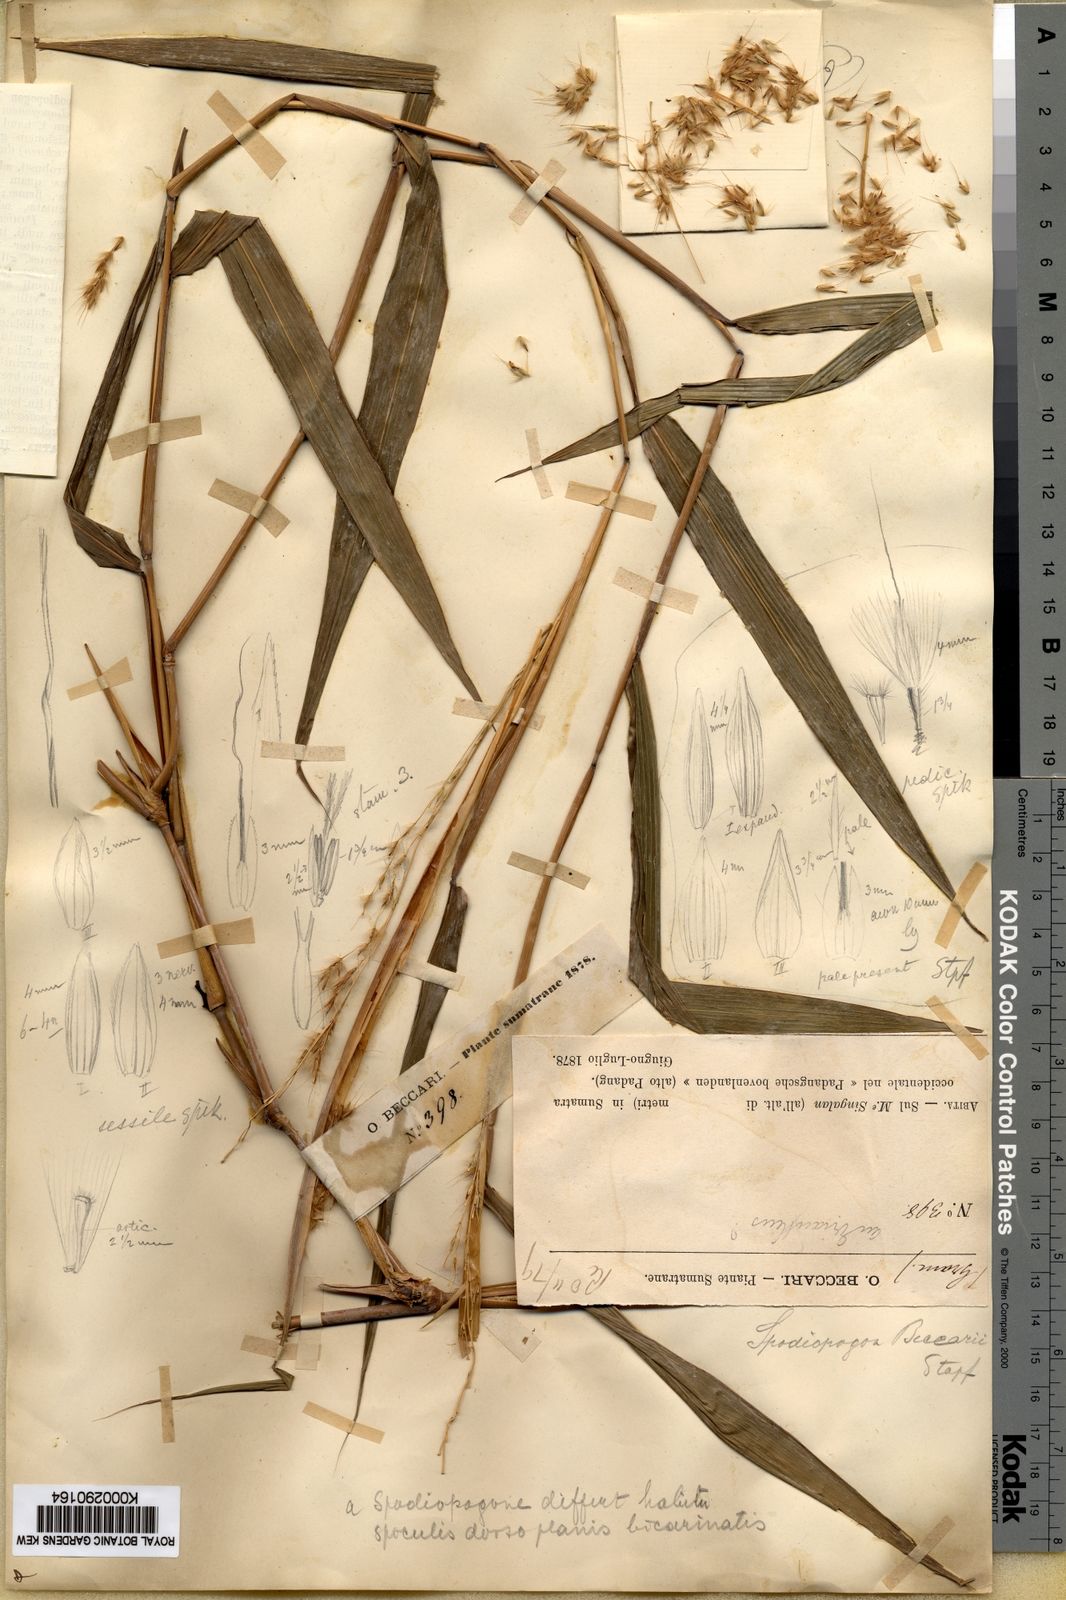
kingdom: Plantae
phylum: Tracheophyta
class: Liliopsida
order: Poales
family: Poaceae
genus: Saccharum
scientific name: Saccharum beccarii
